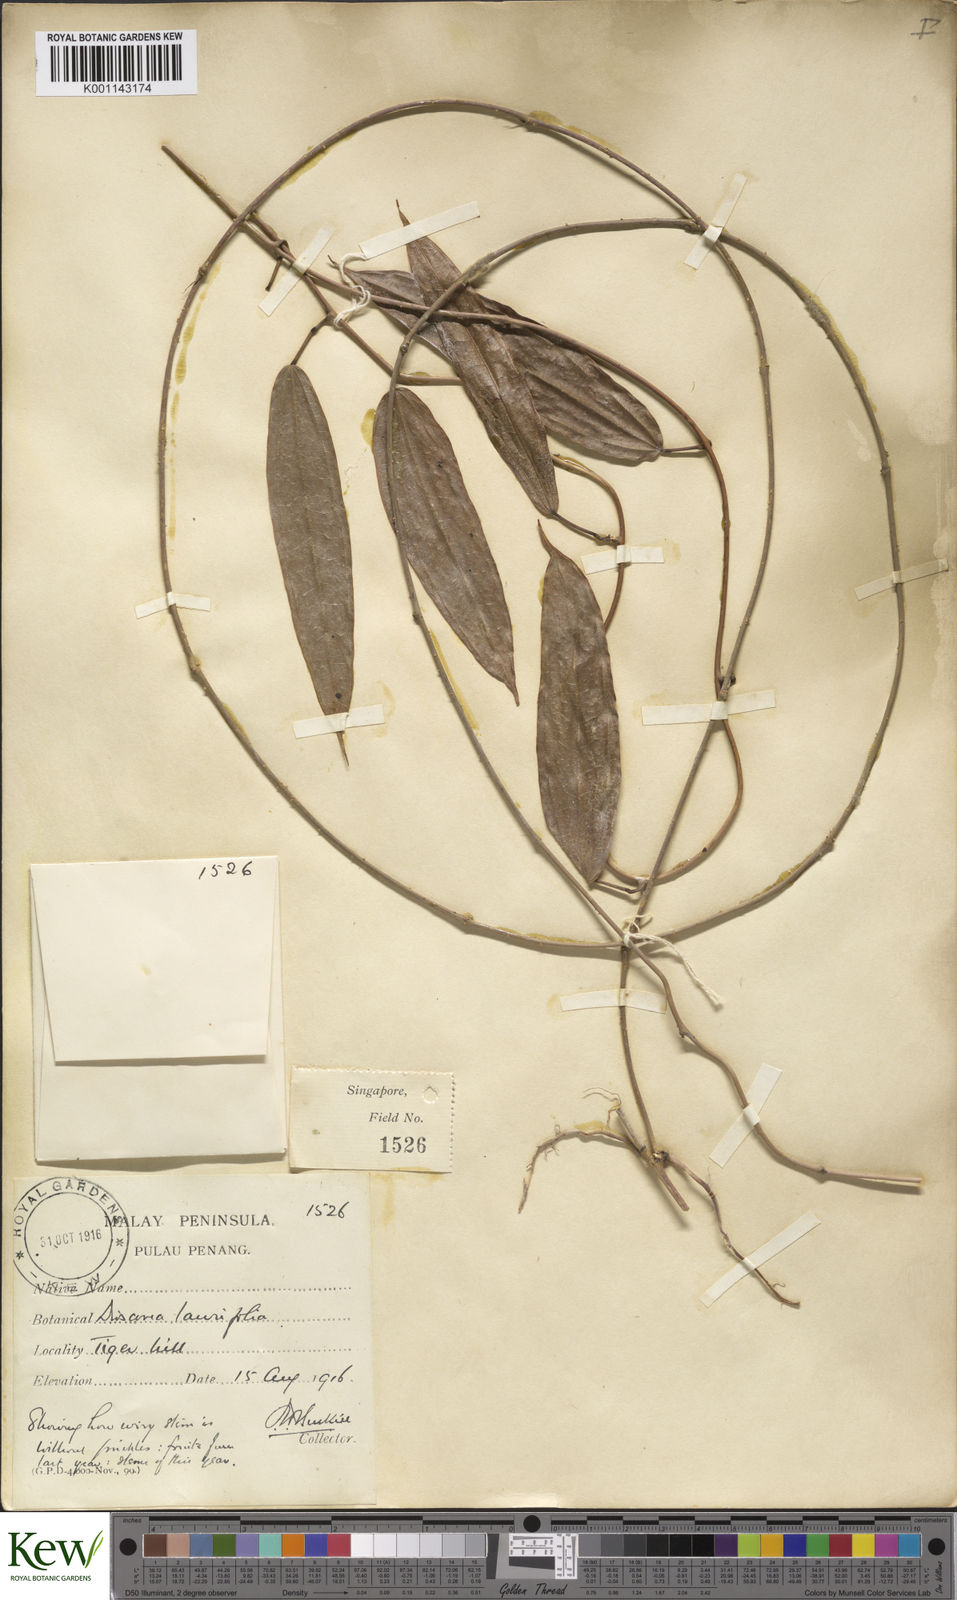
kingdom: Plantae
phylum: Tracheophyta
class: Liliopsida
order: Dioscoreales
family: Dioscoreaceae
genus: Dioscorea
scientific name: Dioscorea laurifolia
